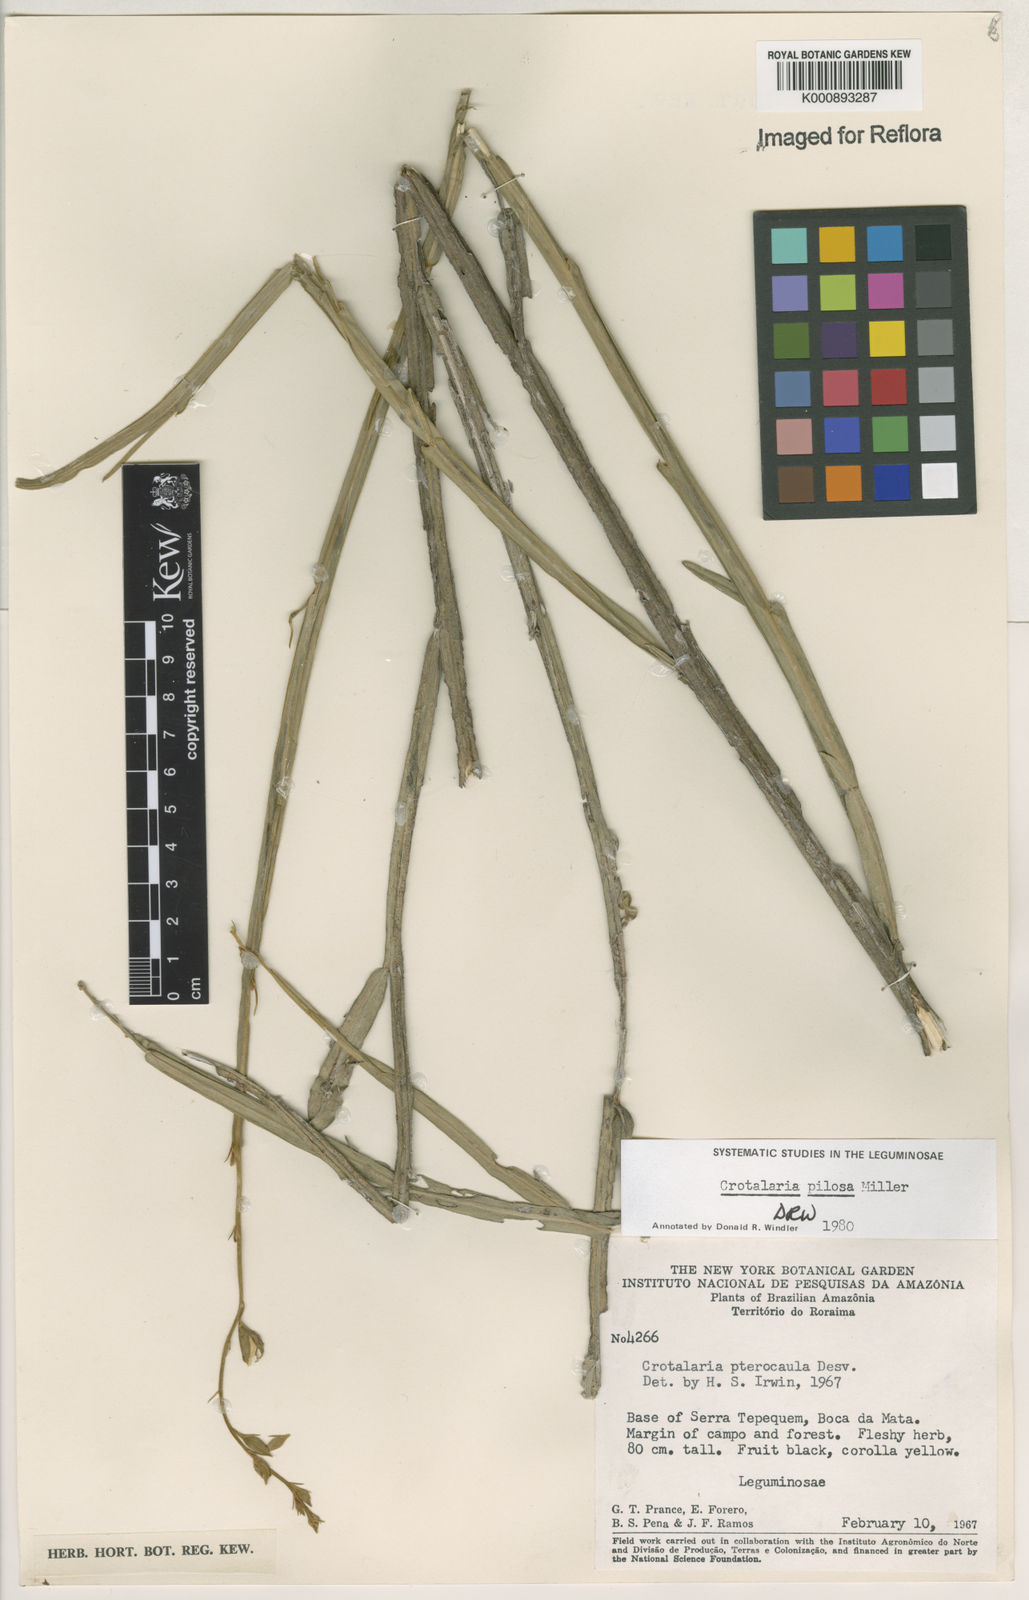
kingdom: Plantae
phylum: Tracheophyta
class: Magnoliopsida
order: Fabales
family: Fabaceae
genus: Crotalaria
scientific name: Crotalaria pilosa
